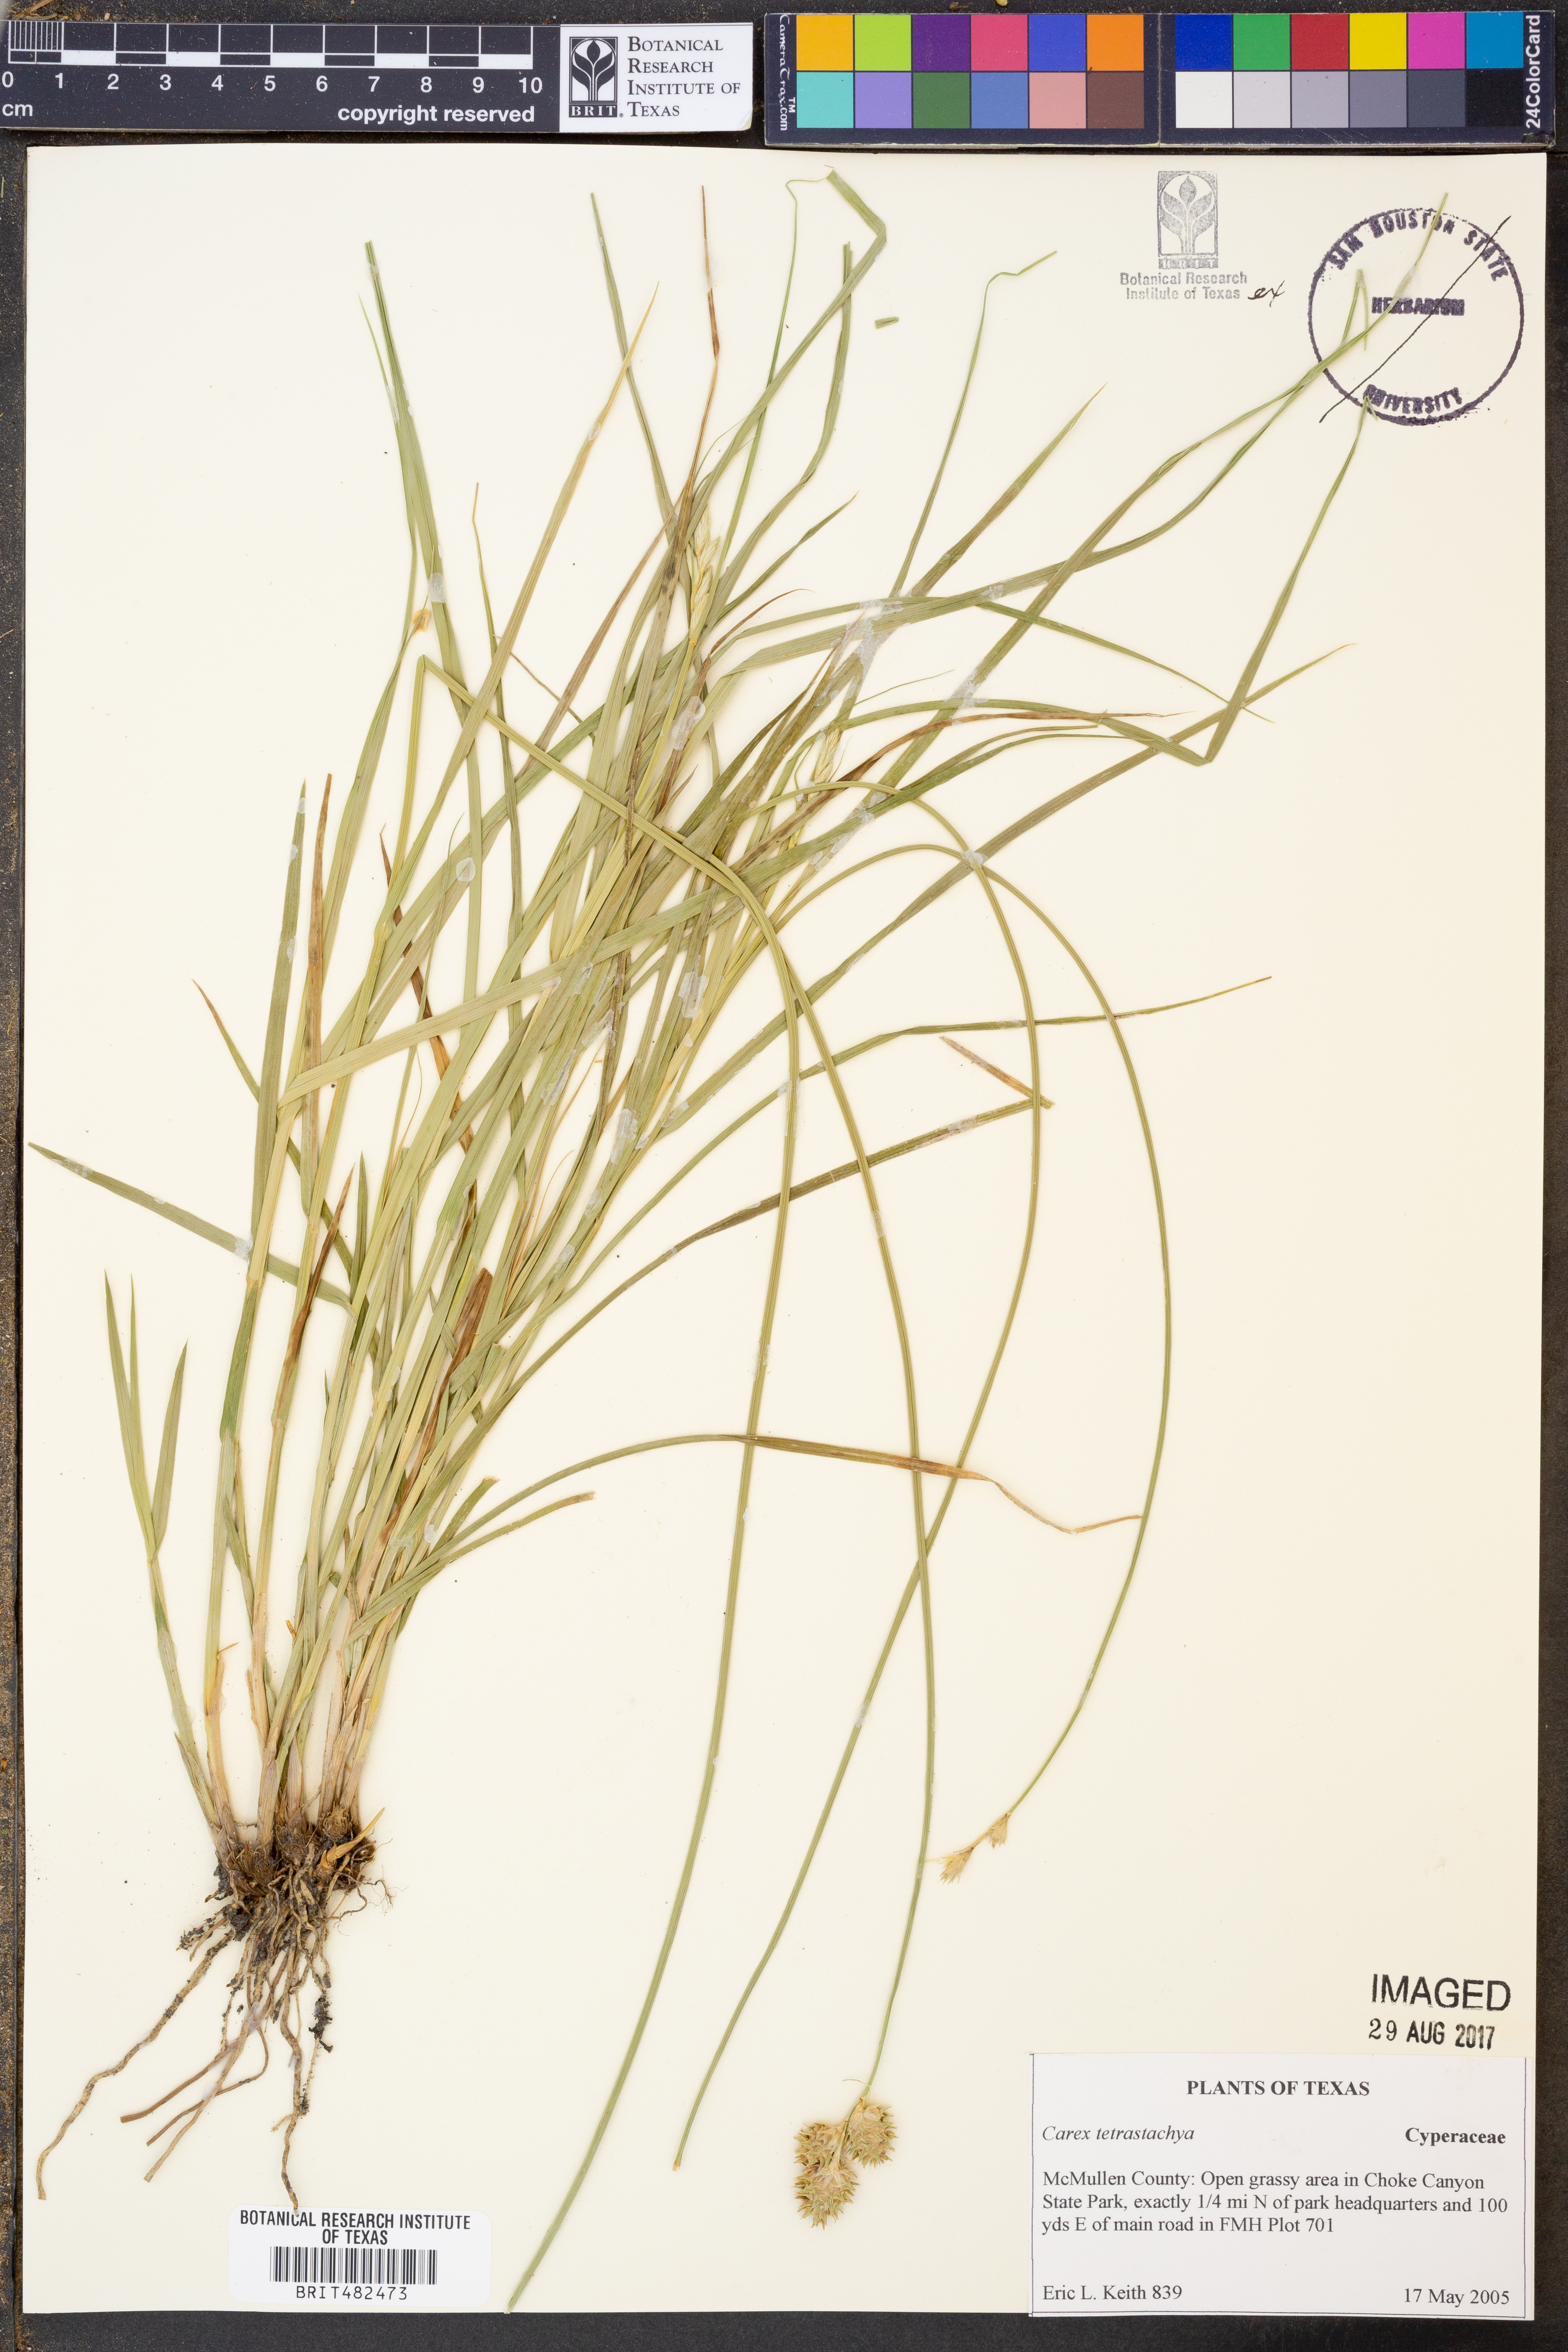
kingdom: Plantae
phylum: Tracheophyta
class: Liliopsida
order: Poales
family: Cyperaceae
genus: Carex
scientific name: Carex tetrastachya
